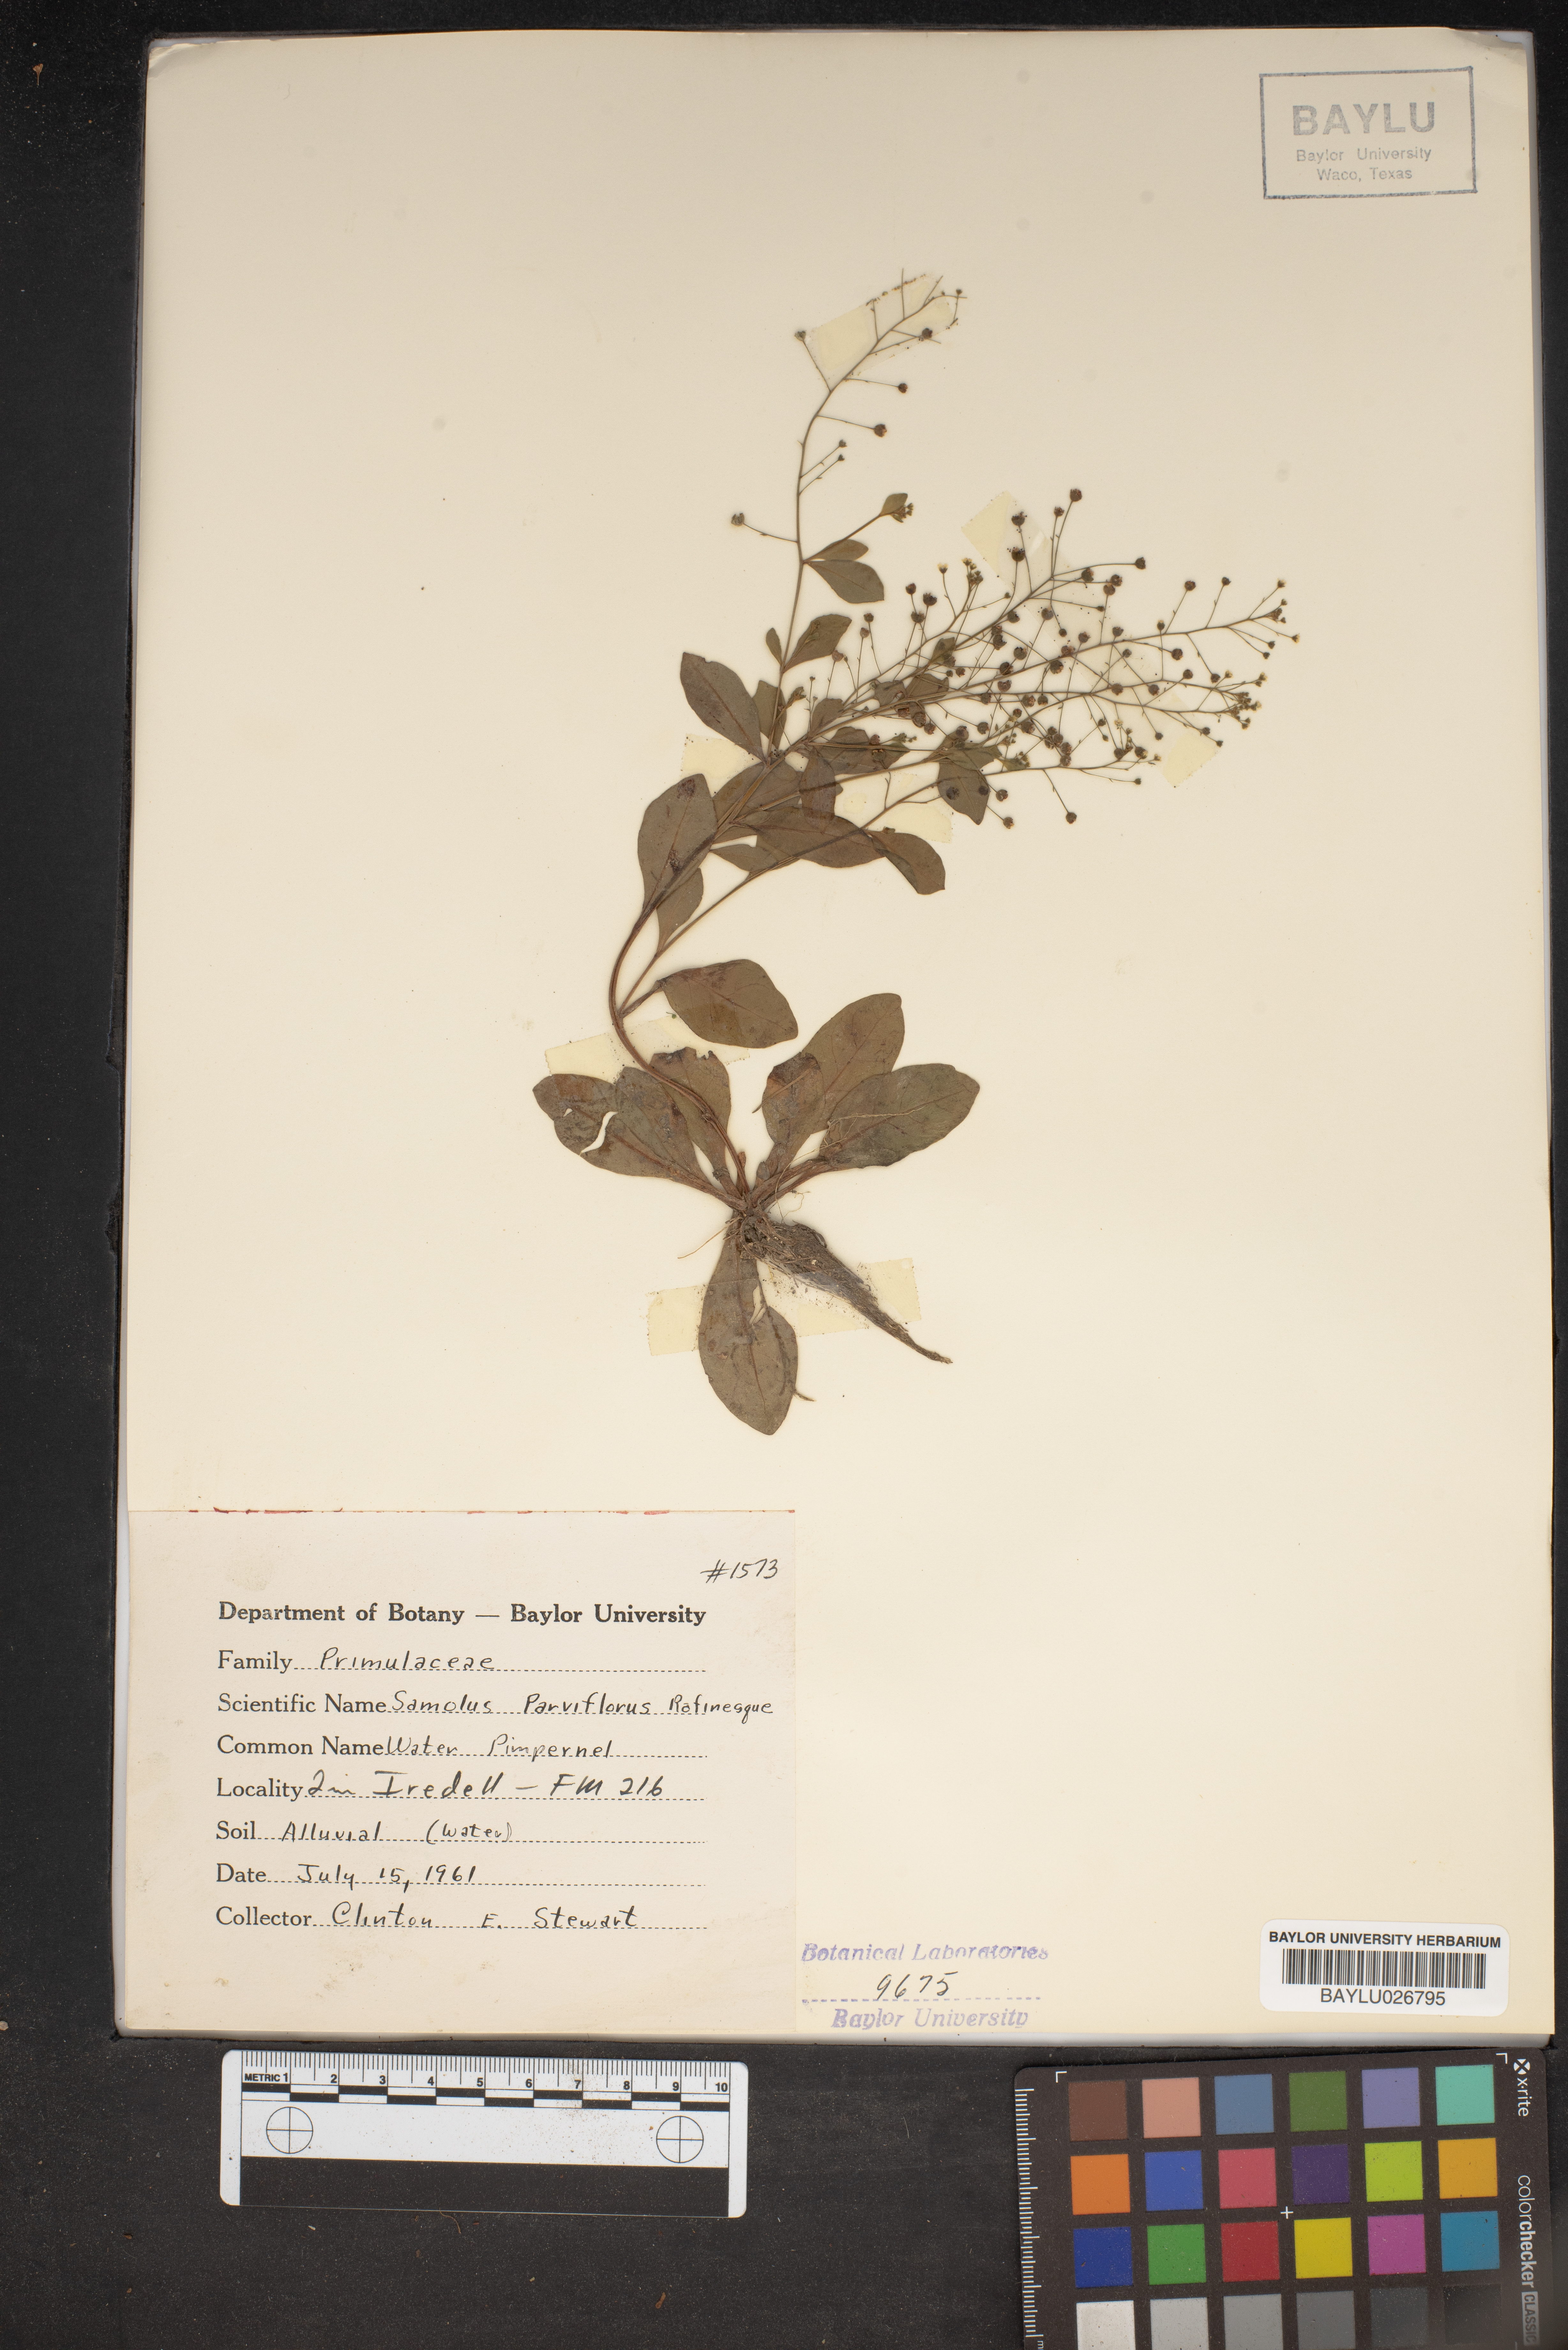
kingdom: Plantae
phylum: Tracheophyta
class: Magnoliopsida
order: Ericales
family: Primulaceae
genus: Samolus
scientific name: Samolus parviflorus
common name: False water pimpernel
